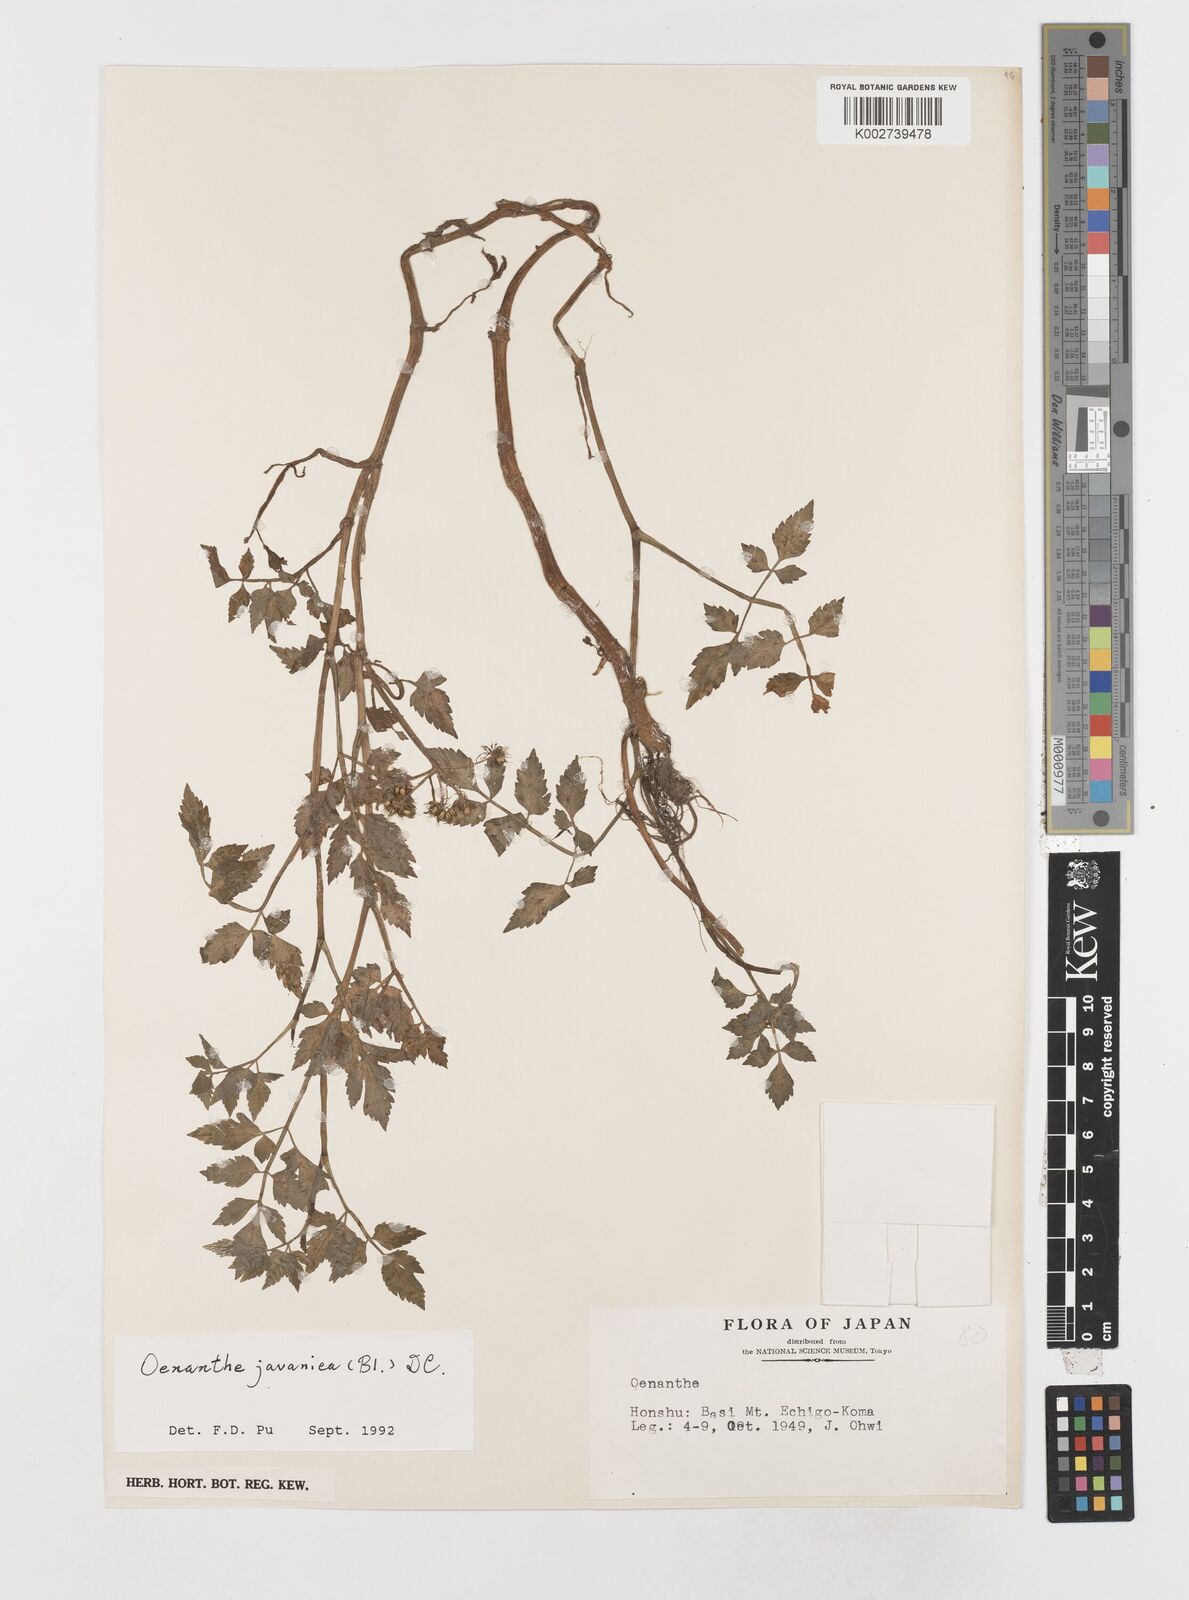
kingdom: Plantae
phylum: Tracheophyta
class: Magnoliopsida
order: Apiales
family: Apiaceae
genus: Oenanthe
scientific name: Oenanthe javanica
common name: Java water-dropwort
